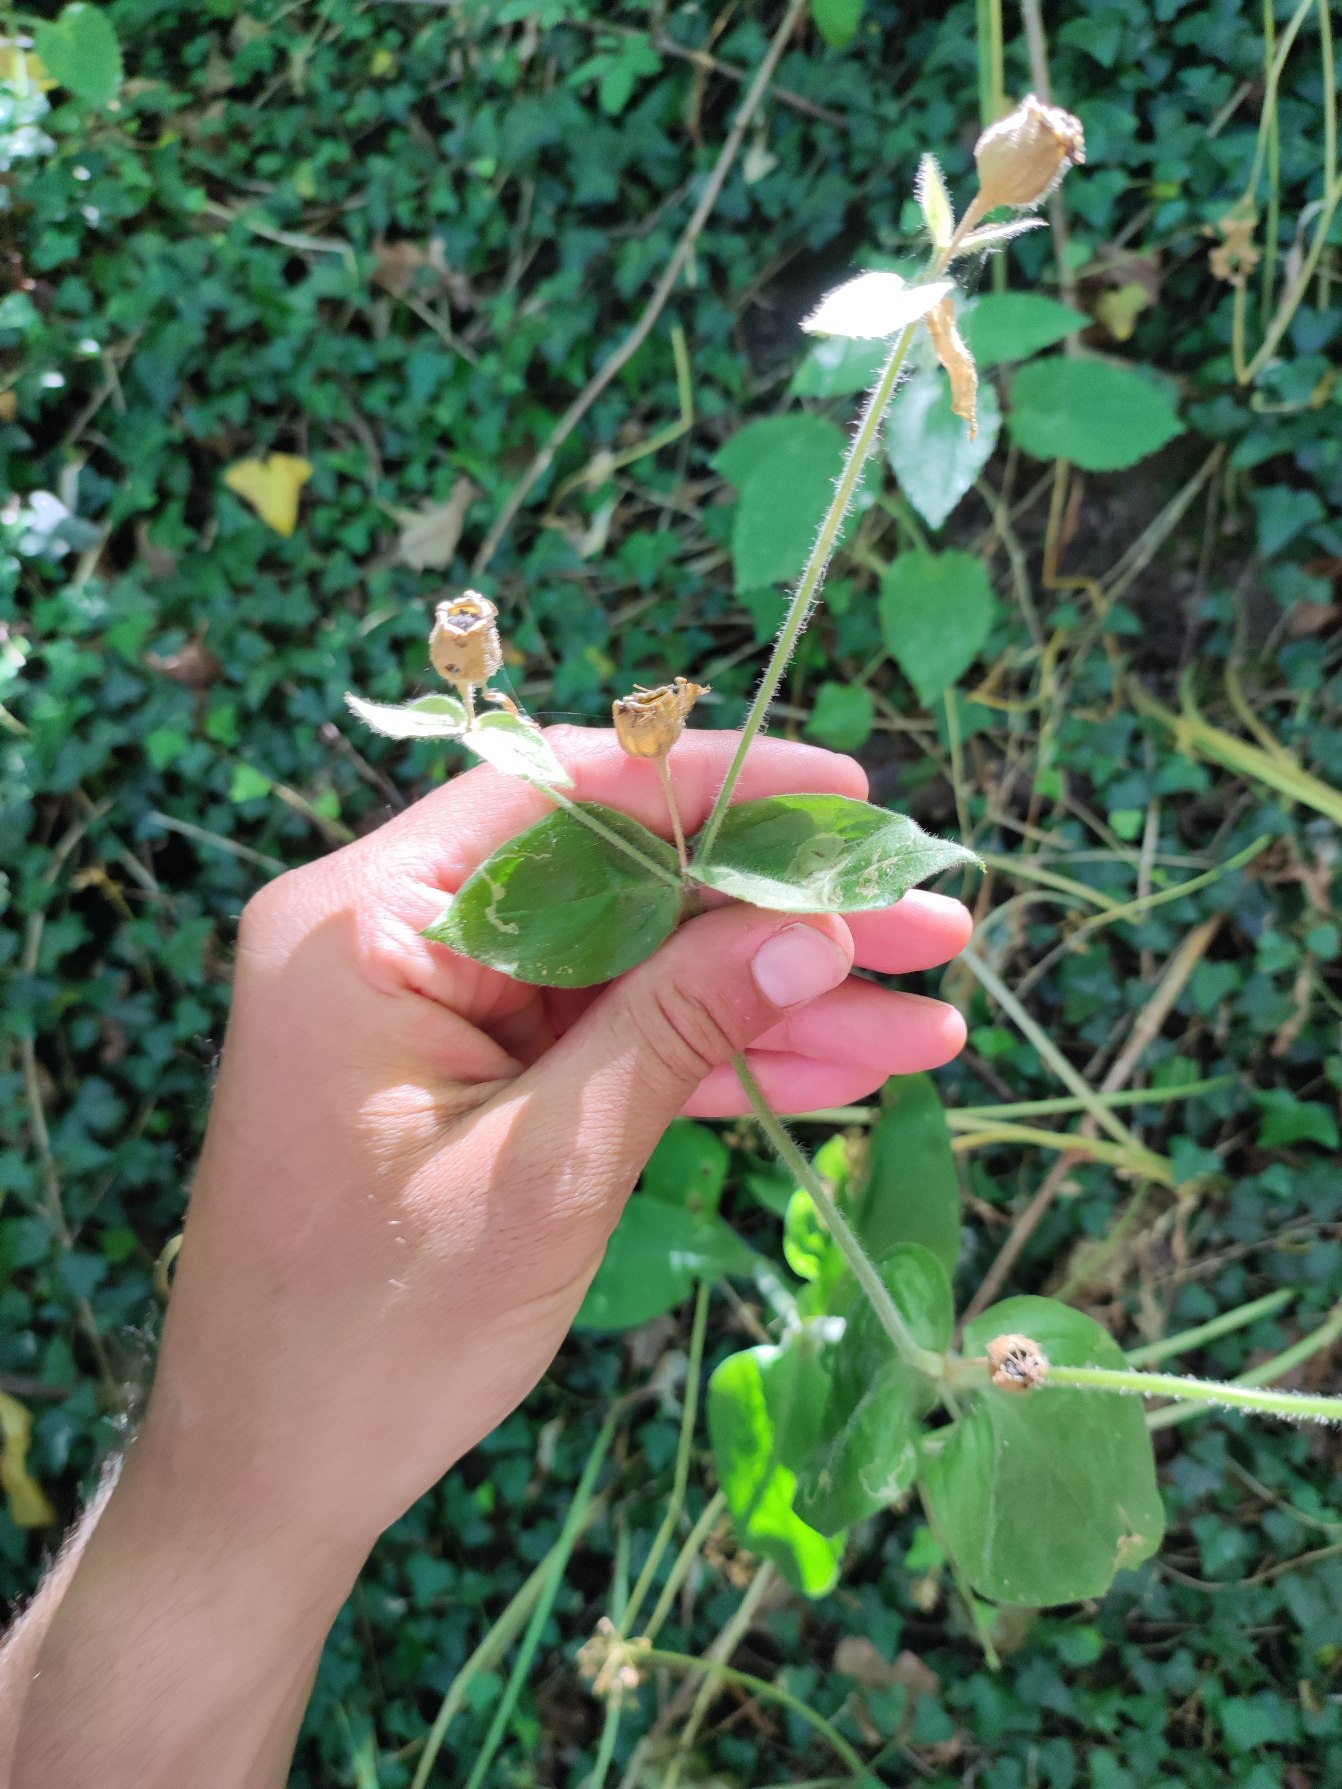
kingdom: Plantae
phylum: Tracheophyta
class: Magnoliopsida
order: Caryophyllales
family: Caryophyllaceae
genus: Silene
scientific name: Silene dioica
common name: Dagpragtstjerne
